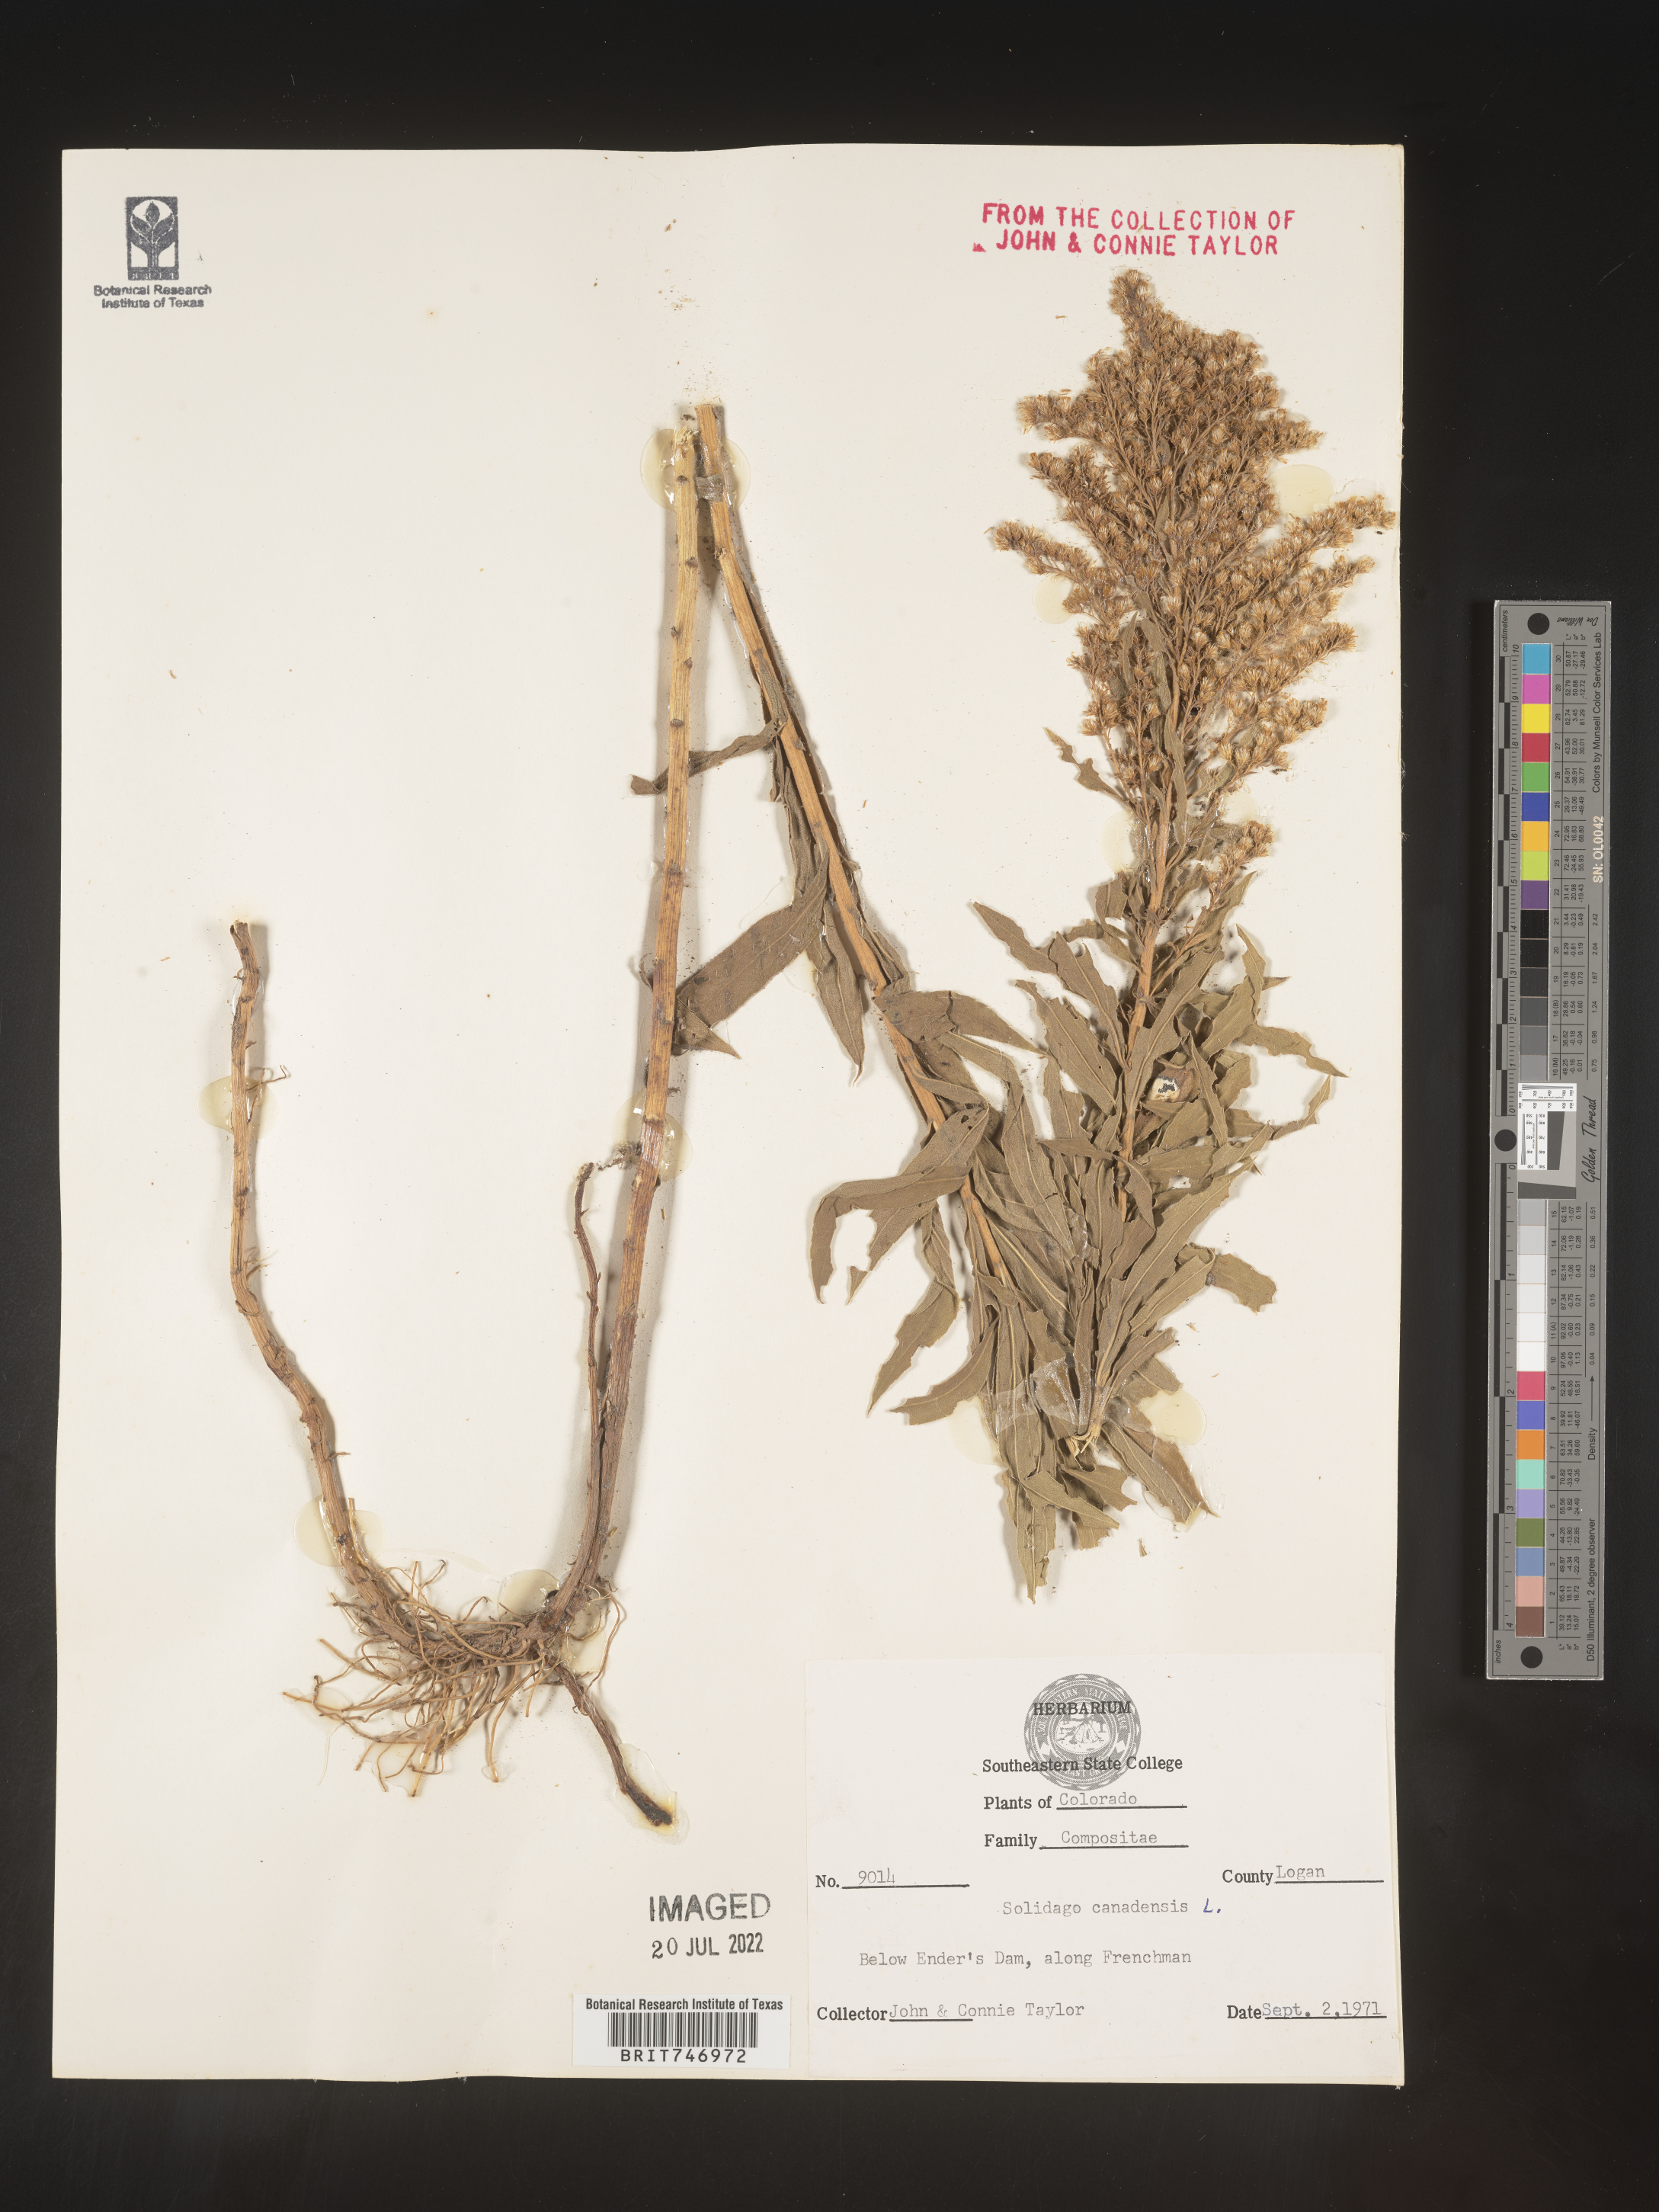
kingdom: Plantae
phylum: Tracheophyta
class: Magnoliopsida
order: Asterales
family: Asteraceae
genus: Solidago
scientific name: Solidago lepida
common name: Western canada goldenrod
